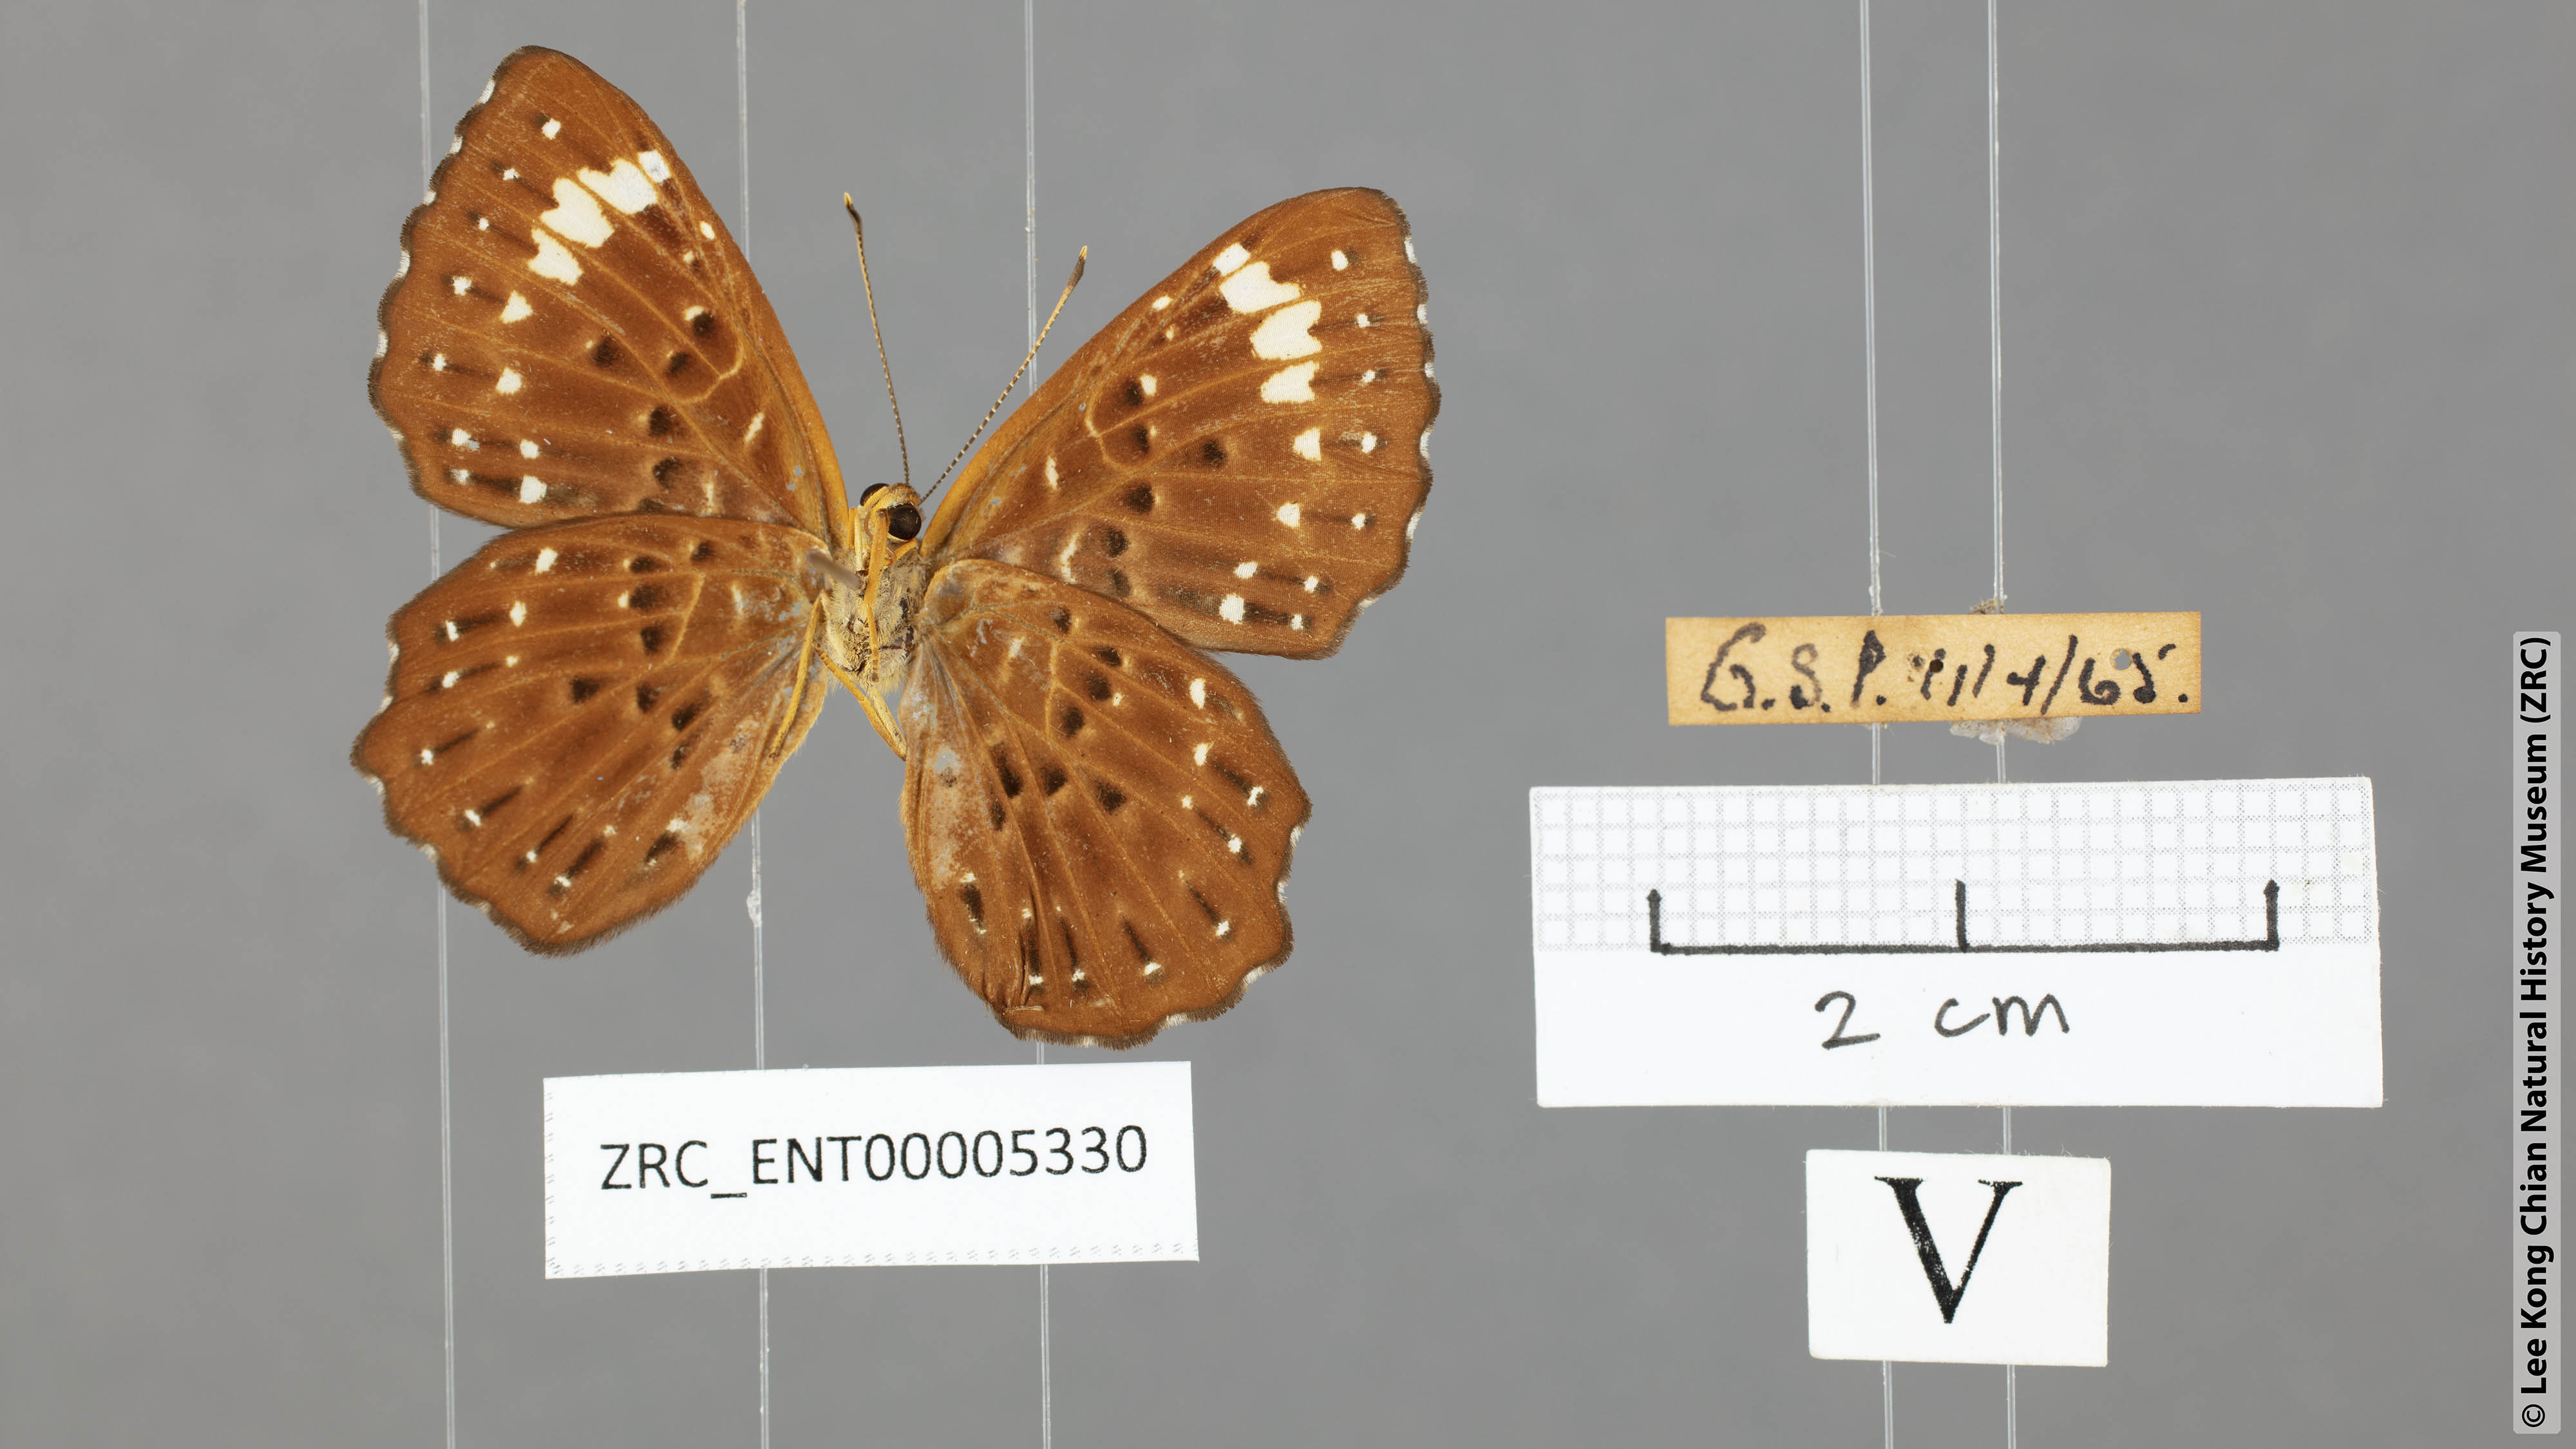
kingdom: Animalia
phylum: Arthropoda
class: Insecta
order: Lepidoptera
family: Riodinidae
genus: Zemeros
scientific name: Zemeros flegyas
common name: Punchinello
